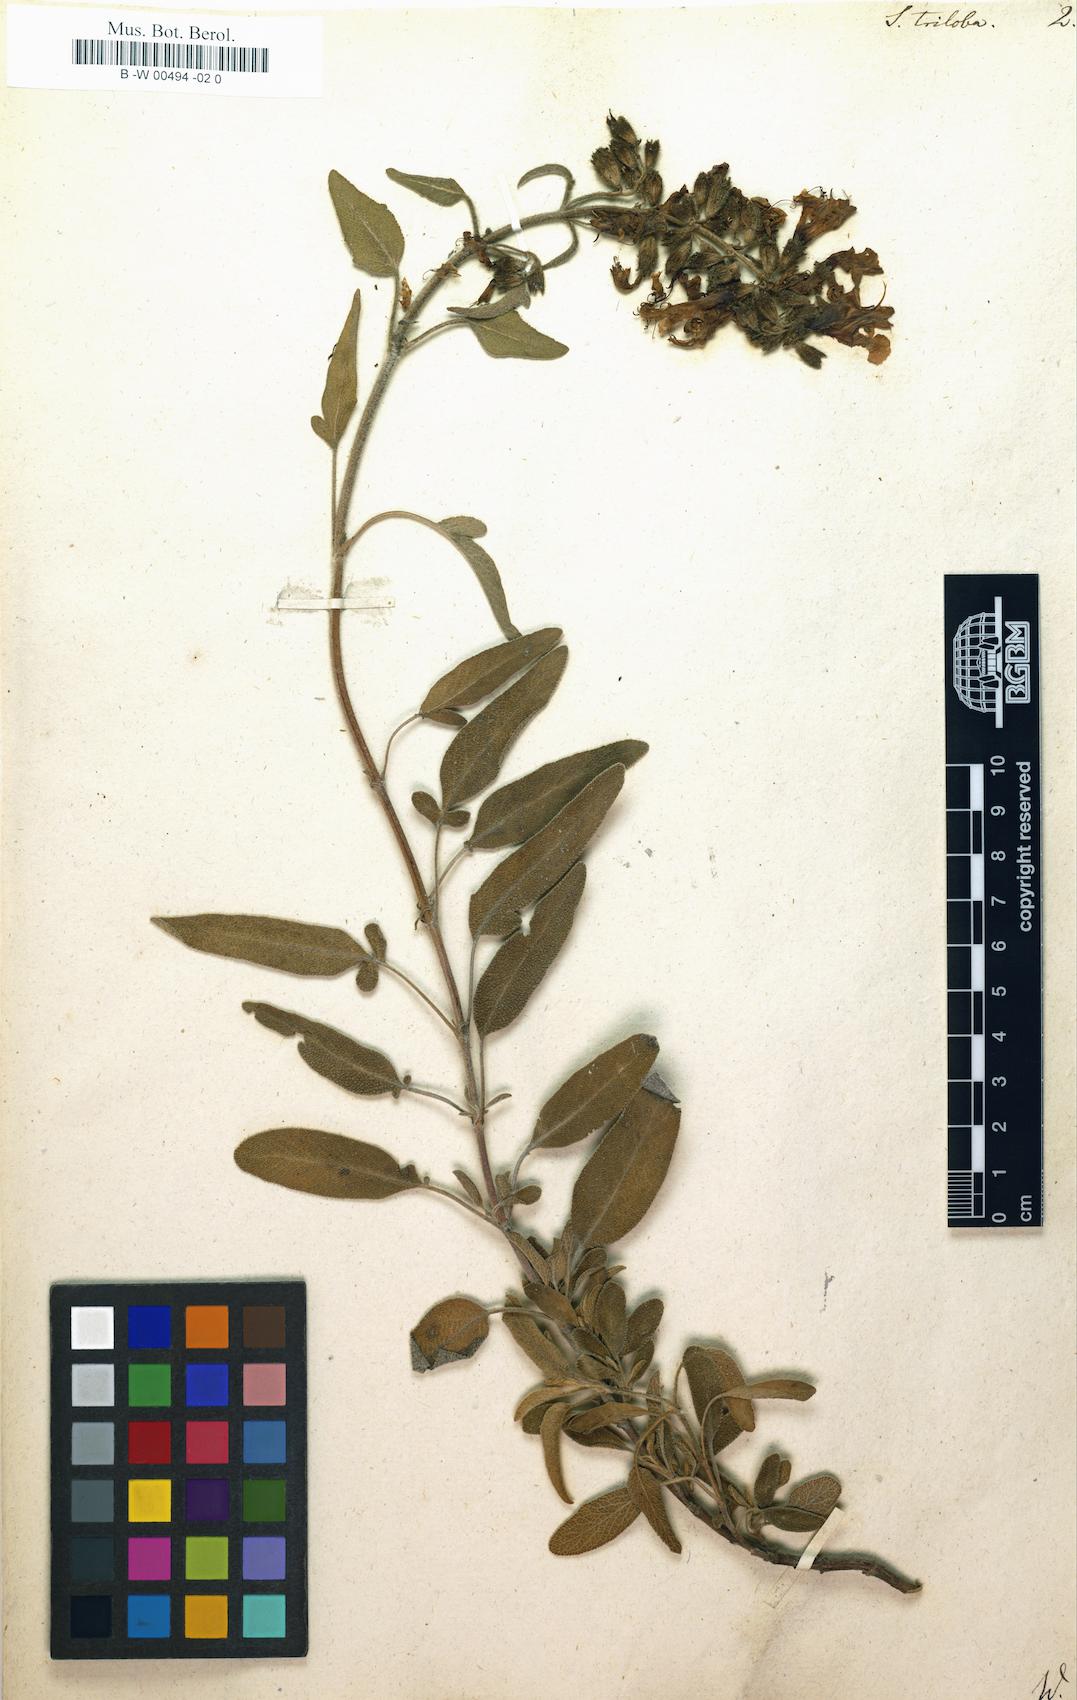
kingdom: Plantae
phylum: Tracheophyta
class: Magnoliopsida
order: Lamiales
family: Lamiaceae
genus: Salvia
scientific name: Salvia fruticosa
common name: Greek sage
